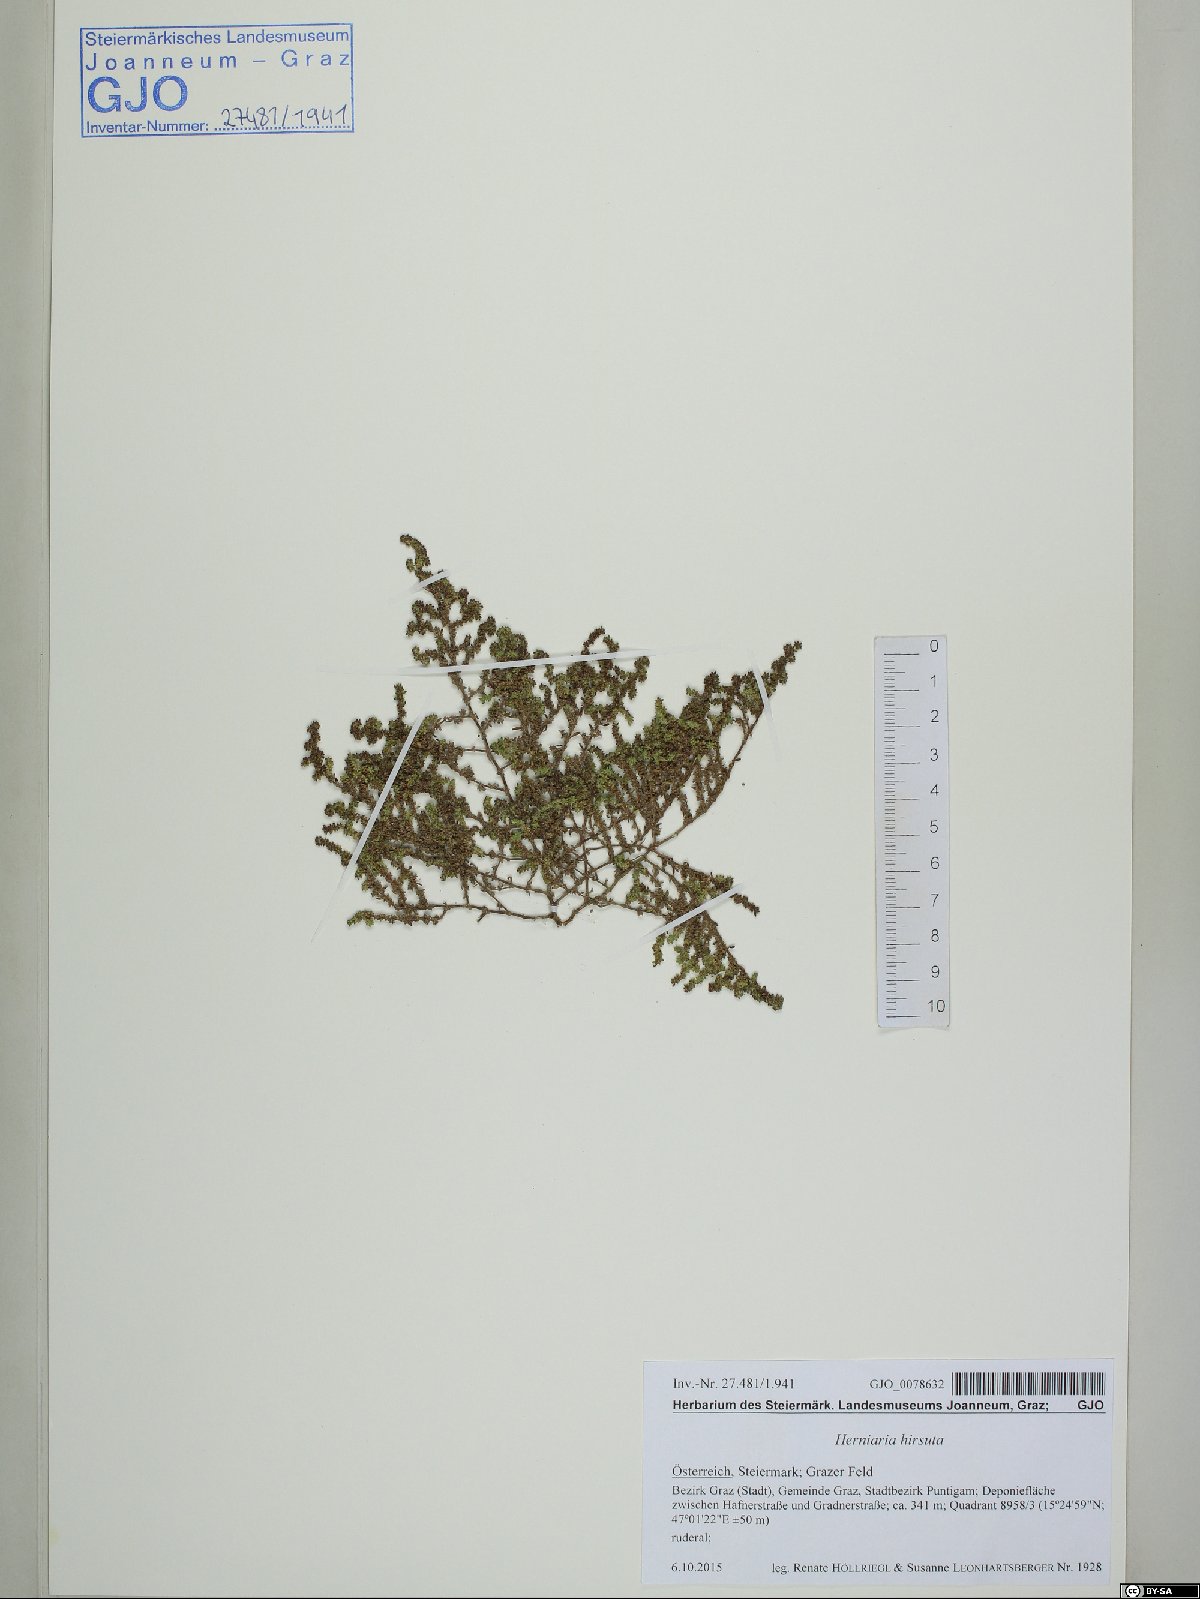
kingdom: Plantae
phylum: Tracheophyta
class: Magnoliopsida
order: Caryophyllales
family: Caryophyllaceae
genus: Herniaria
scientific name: Herniaria hirsuta
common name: Hairy rupturewort
